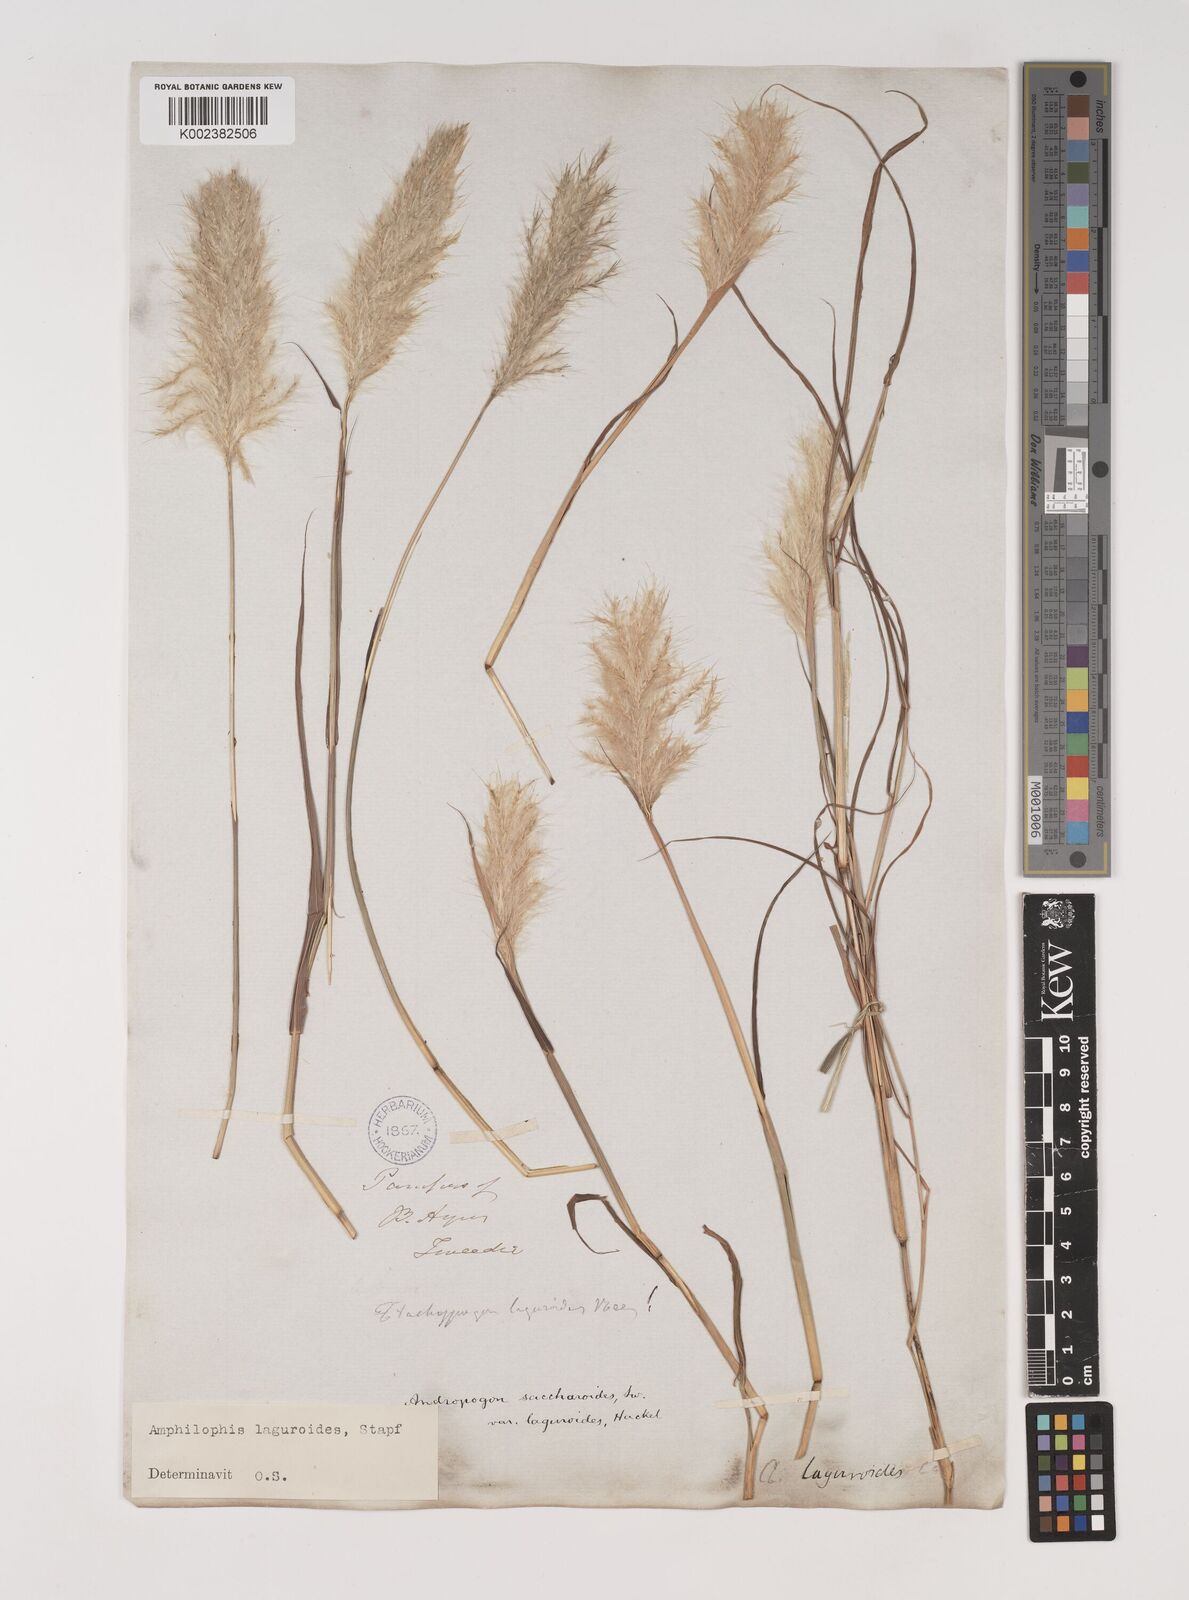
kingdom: Plantae
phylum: Tracheophyta
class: Liliopsida
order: Poales
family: Poaceae
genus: Bothriochloa
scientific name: Bothriochloa laguroides
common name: Silver bluestem
